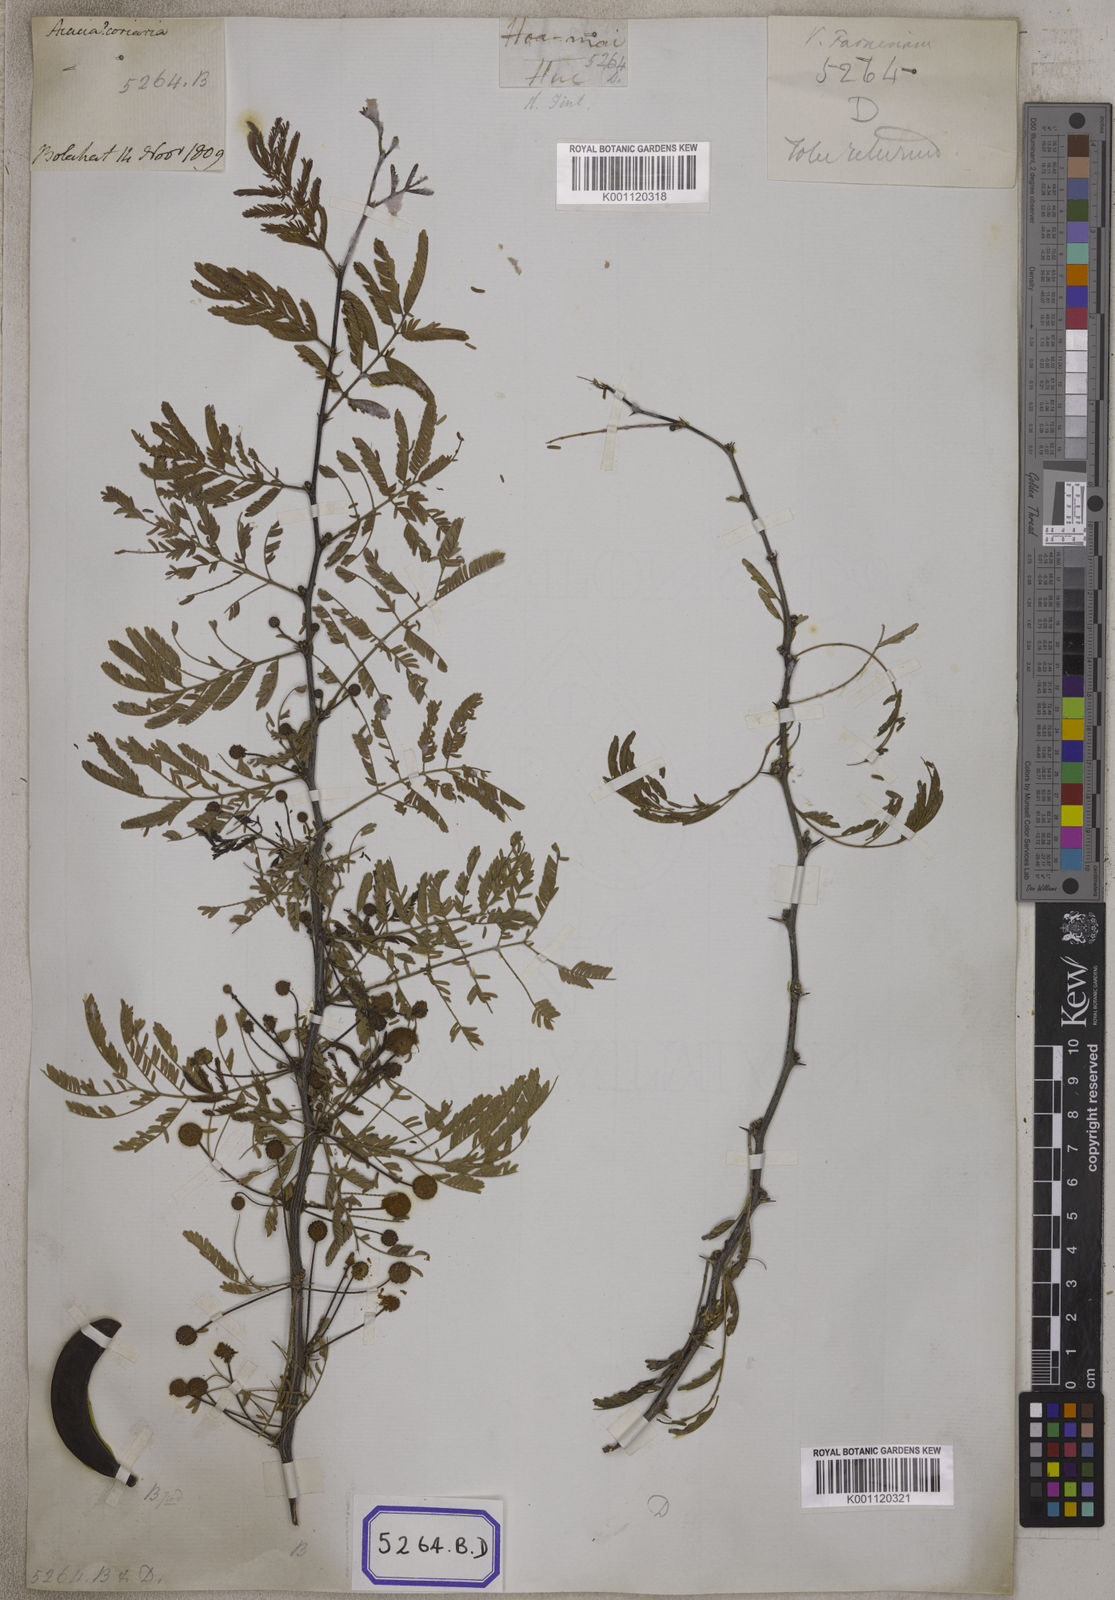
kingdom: Plantae
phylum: Tracheophyta
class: Magnoliopsida
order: Fabales
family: Fabaceae
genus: Vachellia
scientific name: Vachellia farnesiana
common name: Sweet acacia
